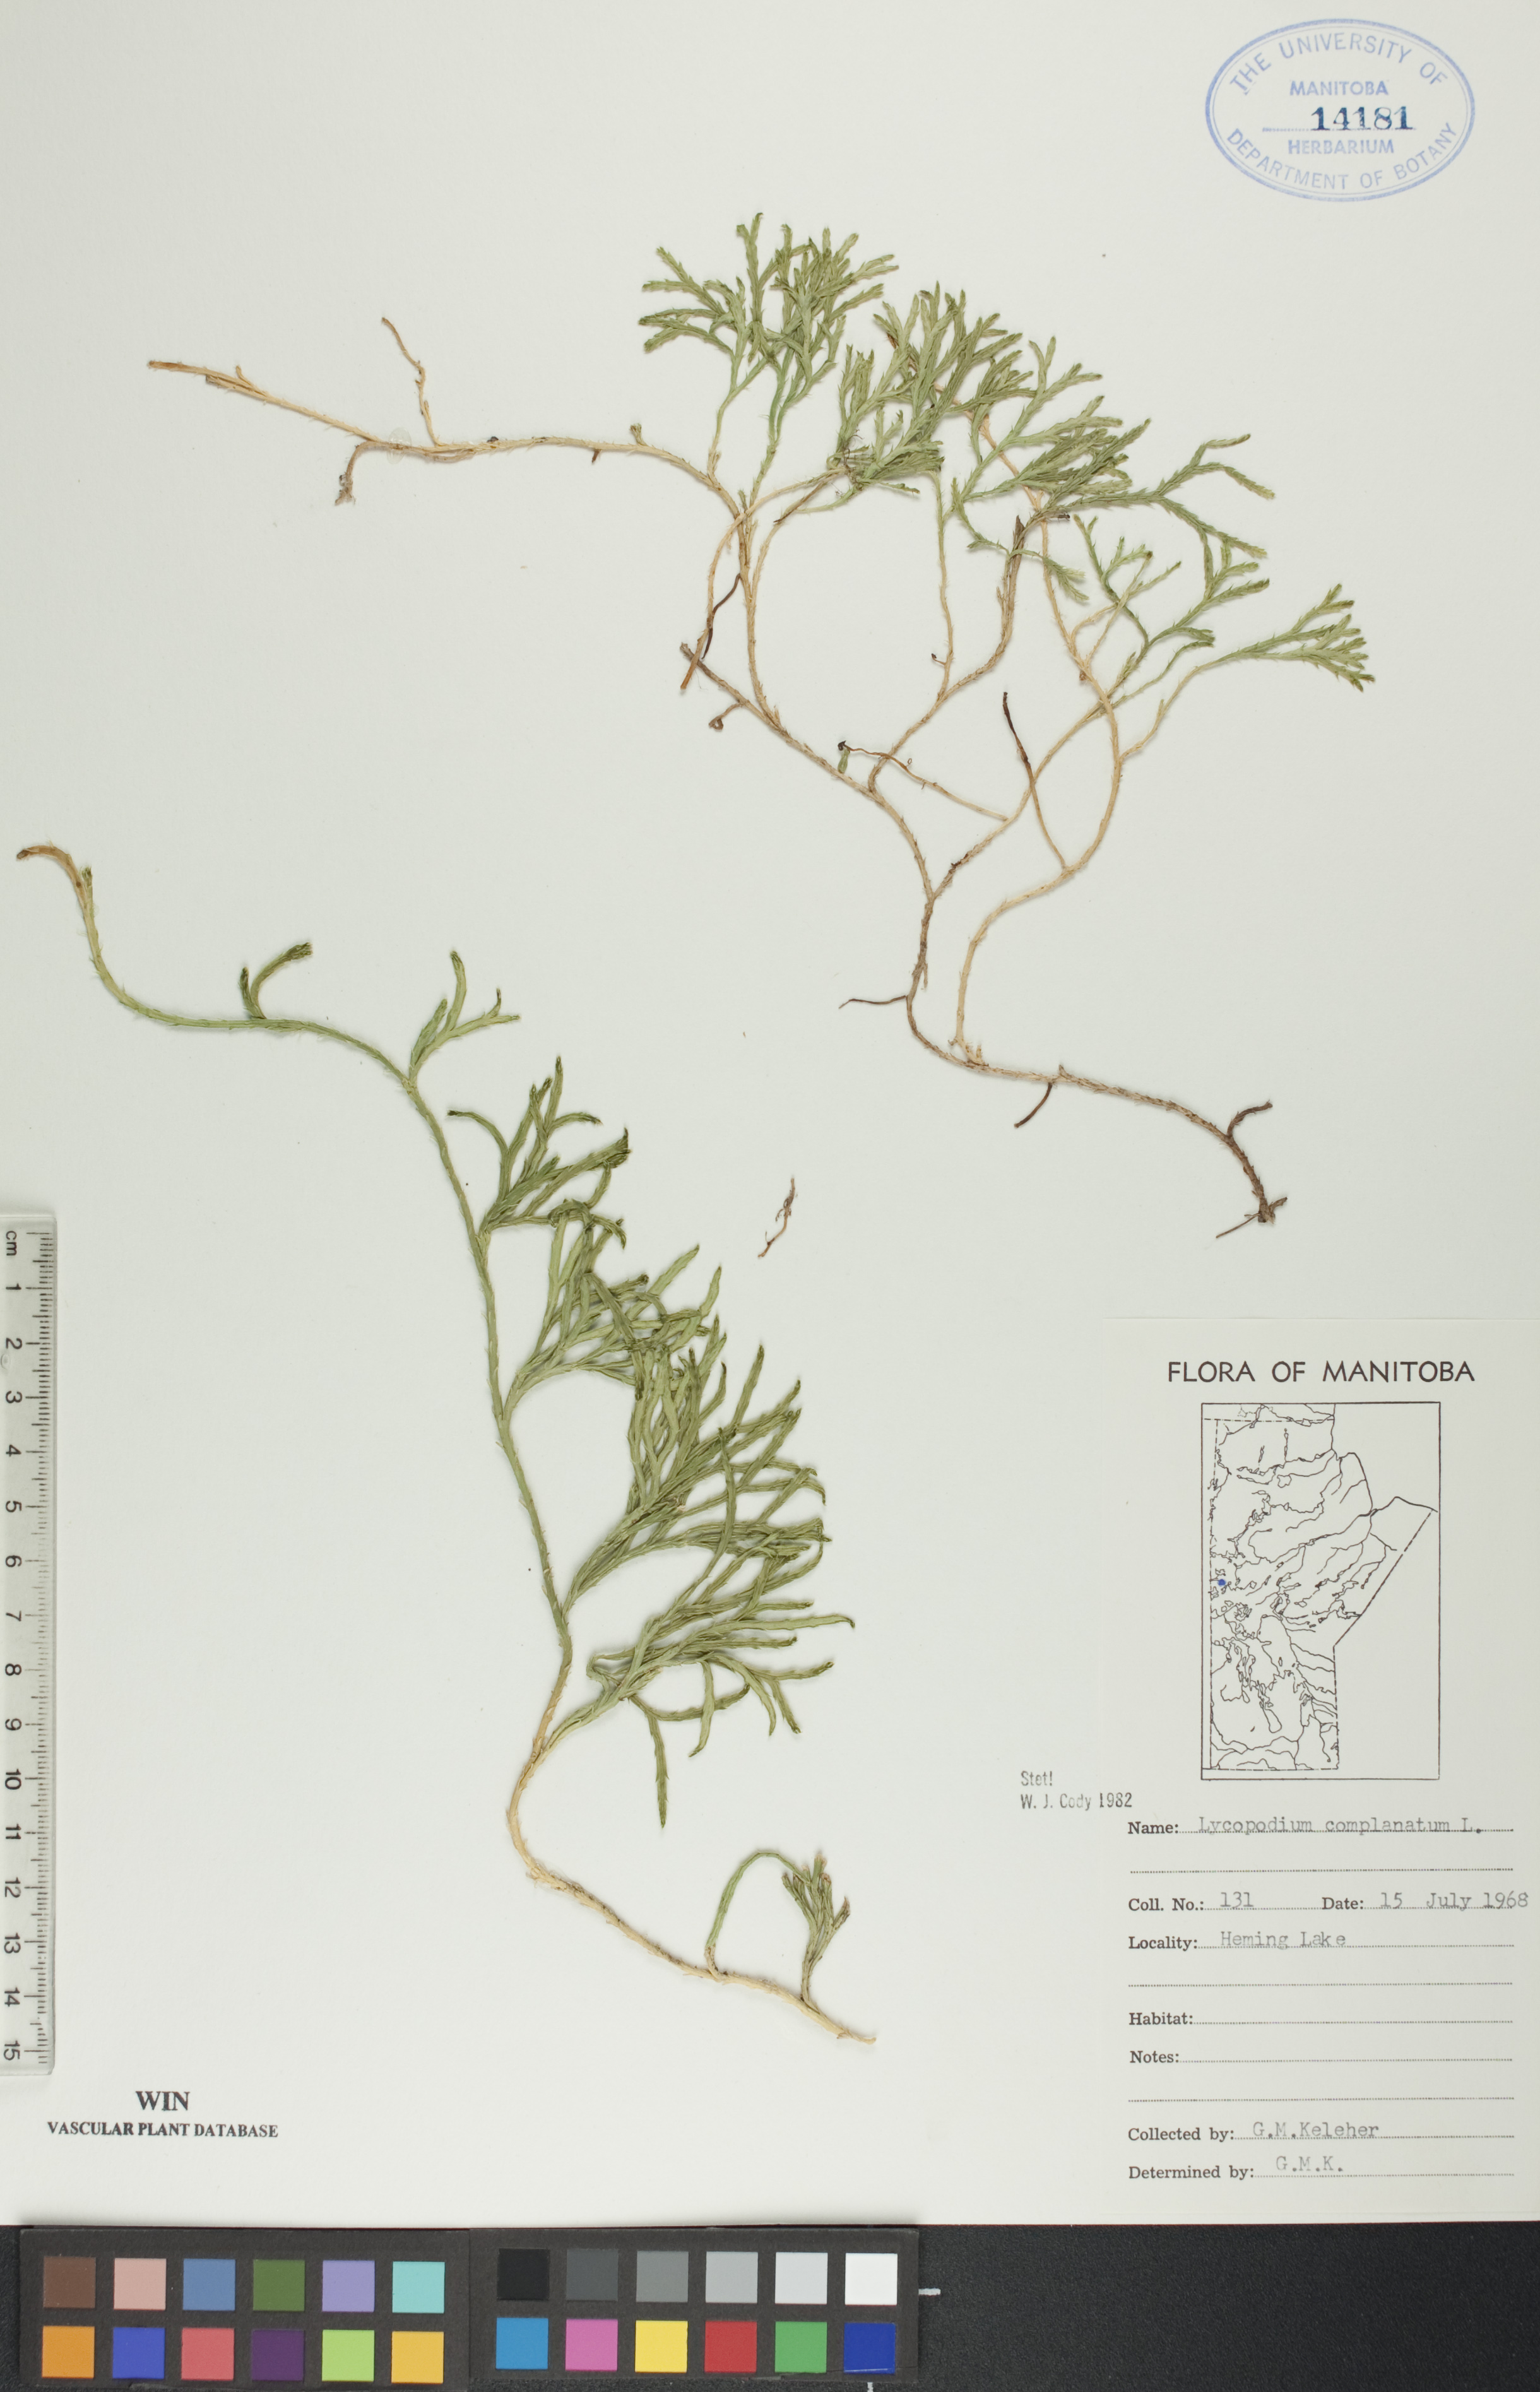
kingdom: Plantae
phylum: Tracheophyta
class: Lycopodiopsida
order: Lycopodiales
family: Lycopodiaceae
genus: Diphasiastrum
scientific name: Diphasiastrum
